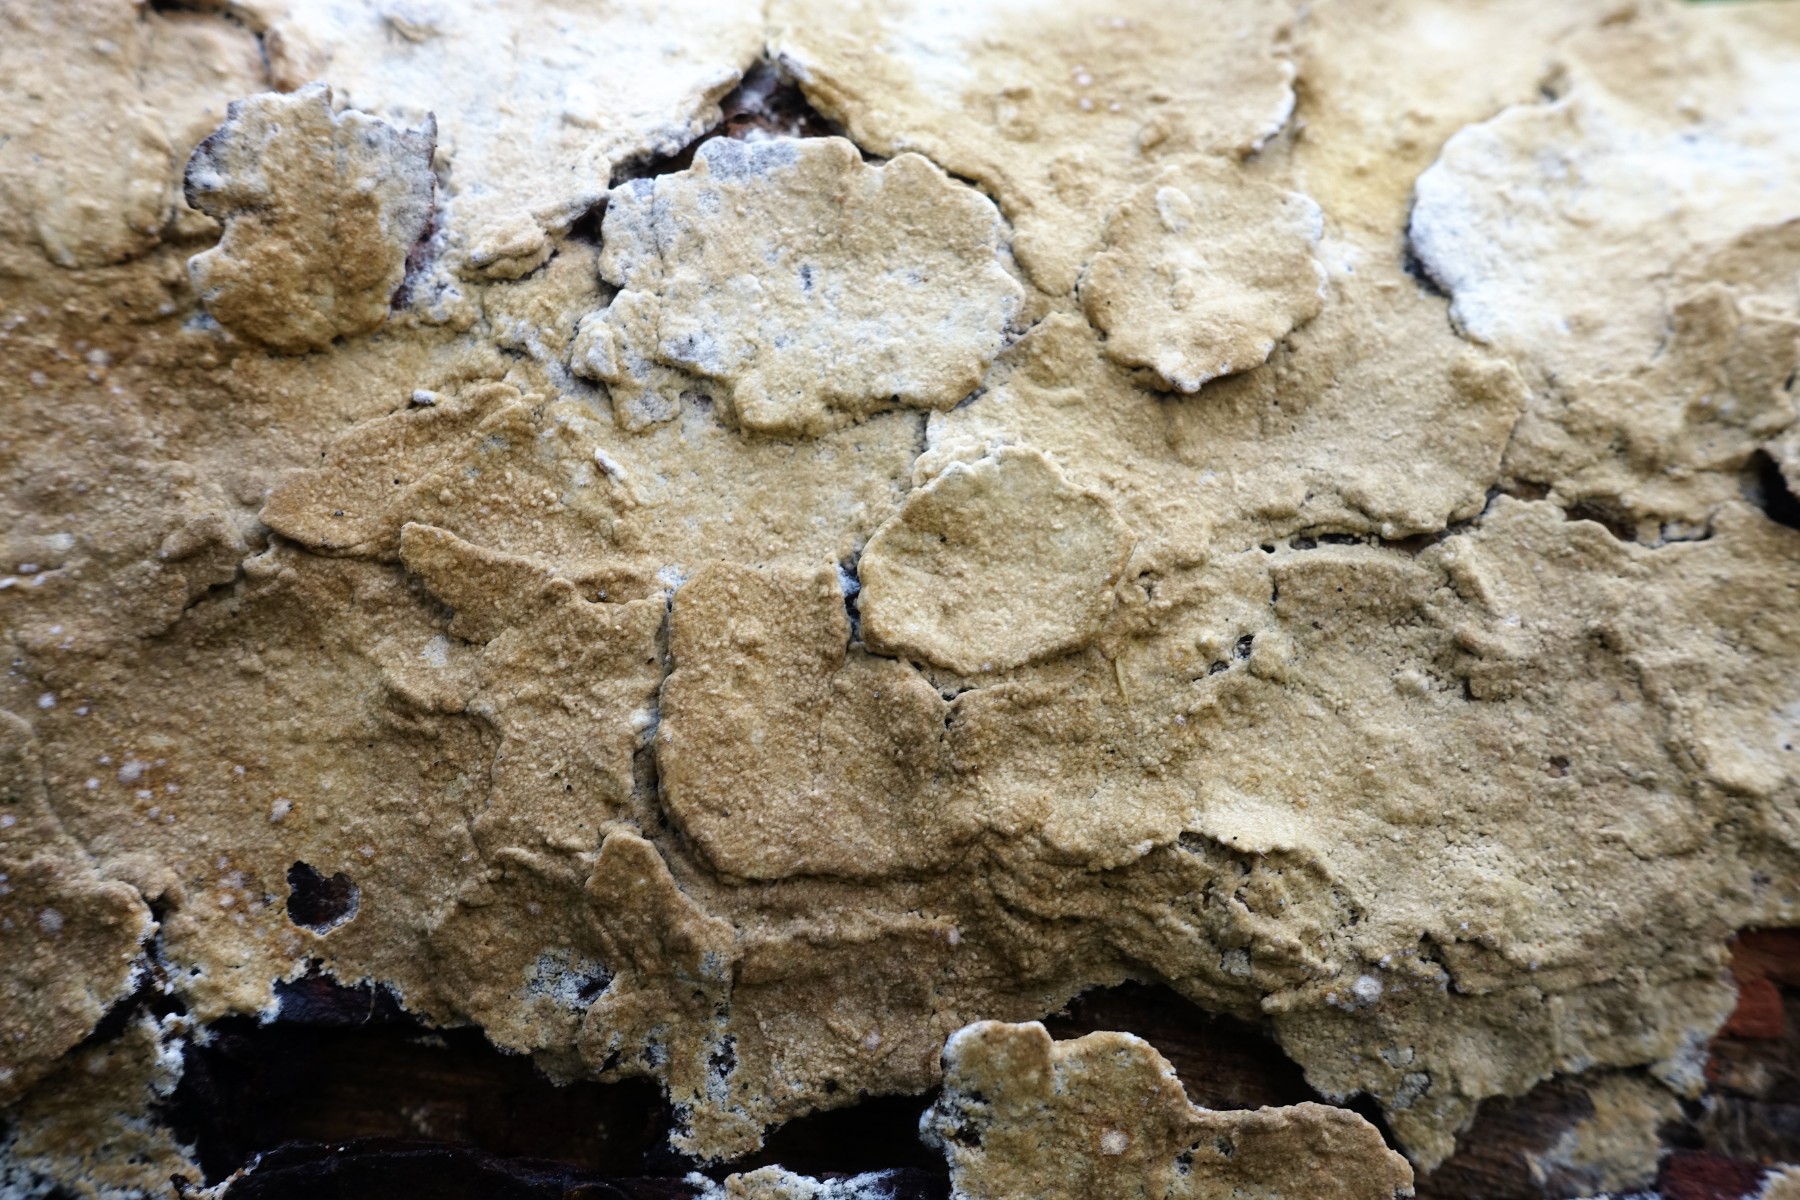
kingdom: Fungi
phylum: Basidiomycota
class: Agaricomycetes
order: Boletales
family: Coniophoraceae
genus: Coniophora
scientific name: Coniophora arida
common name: tynd tømmersvamp
